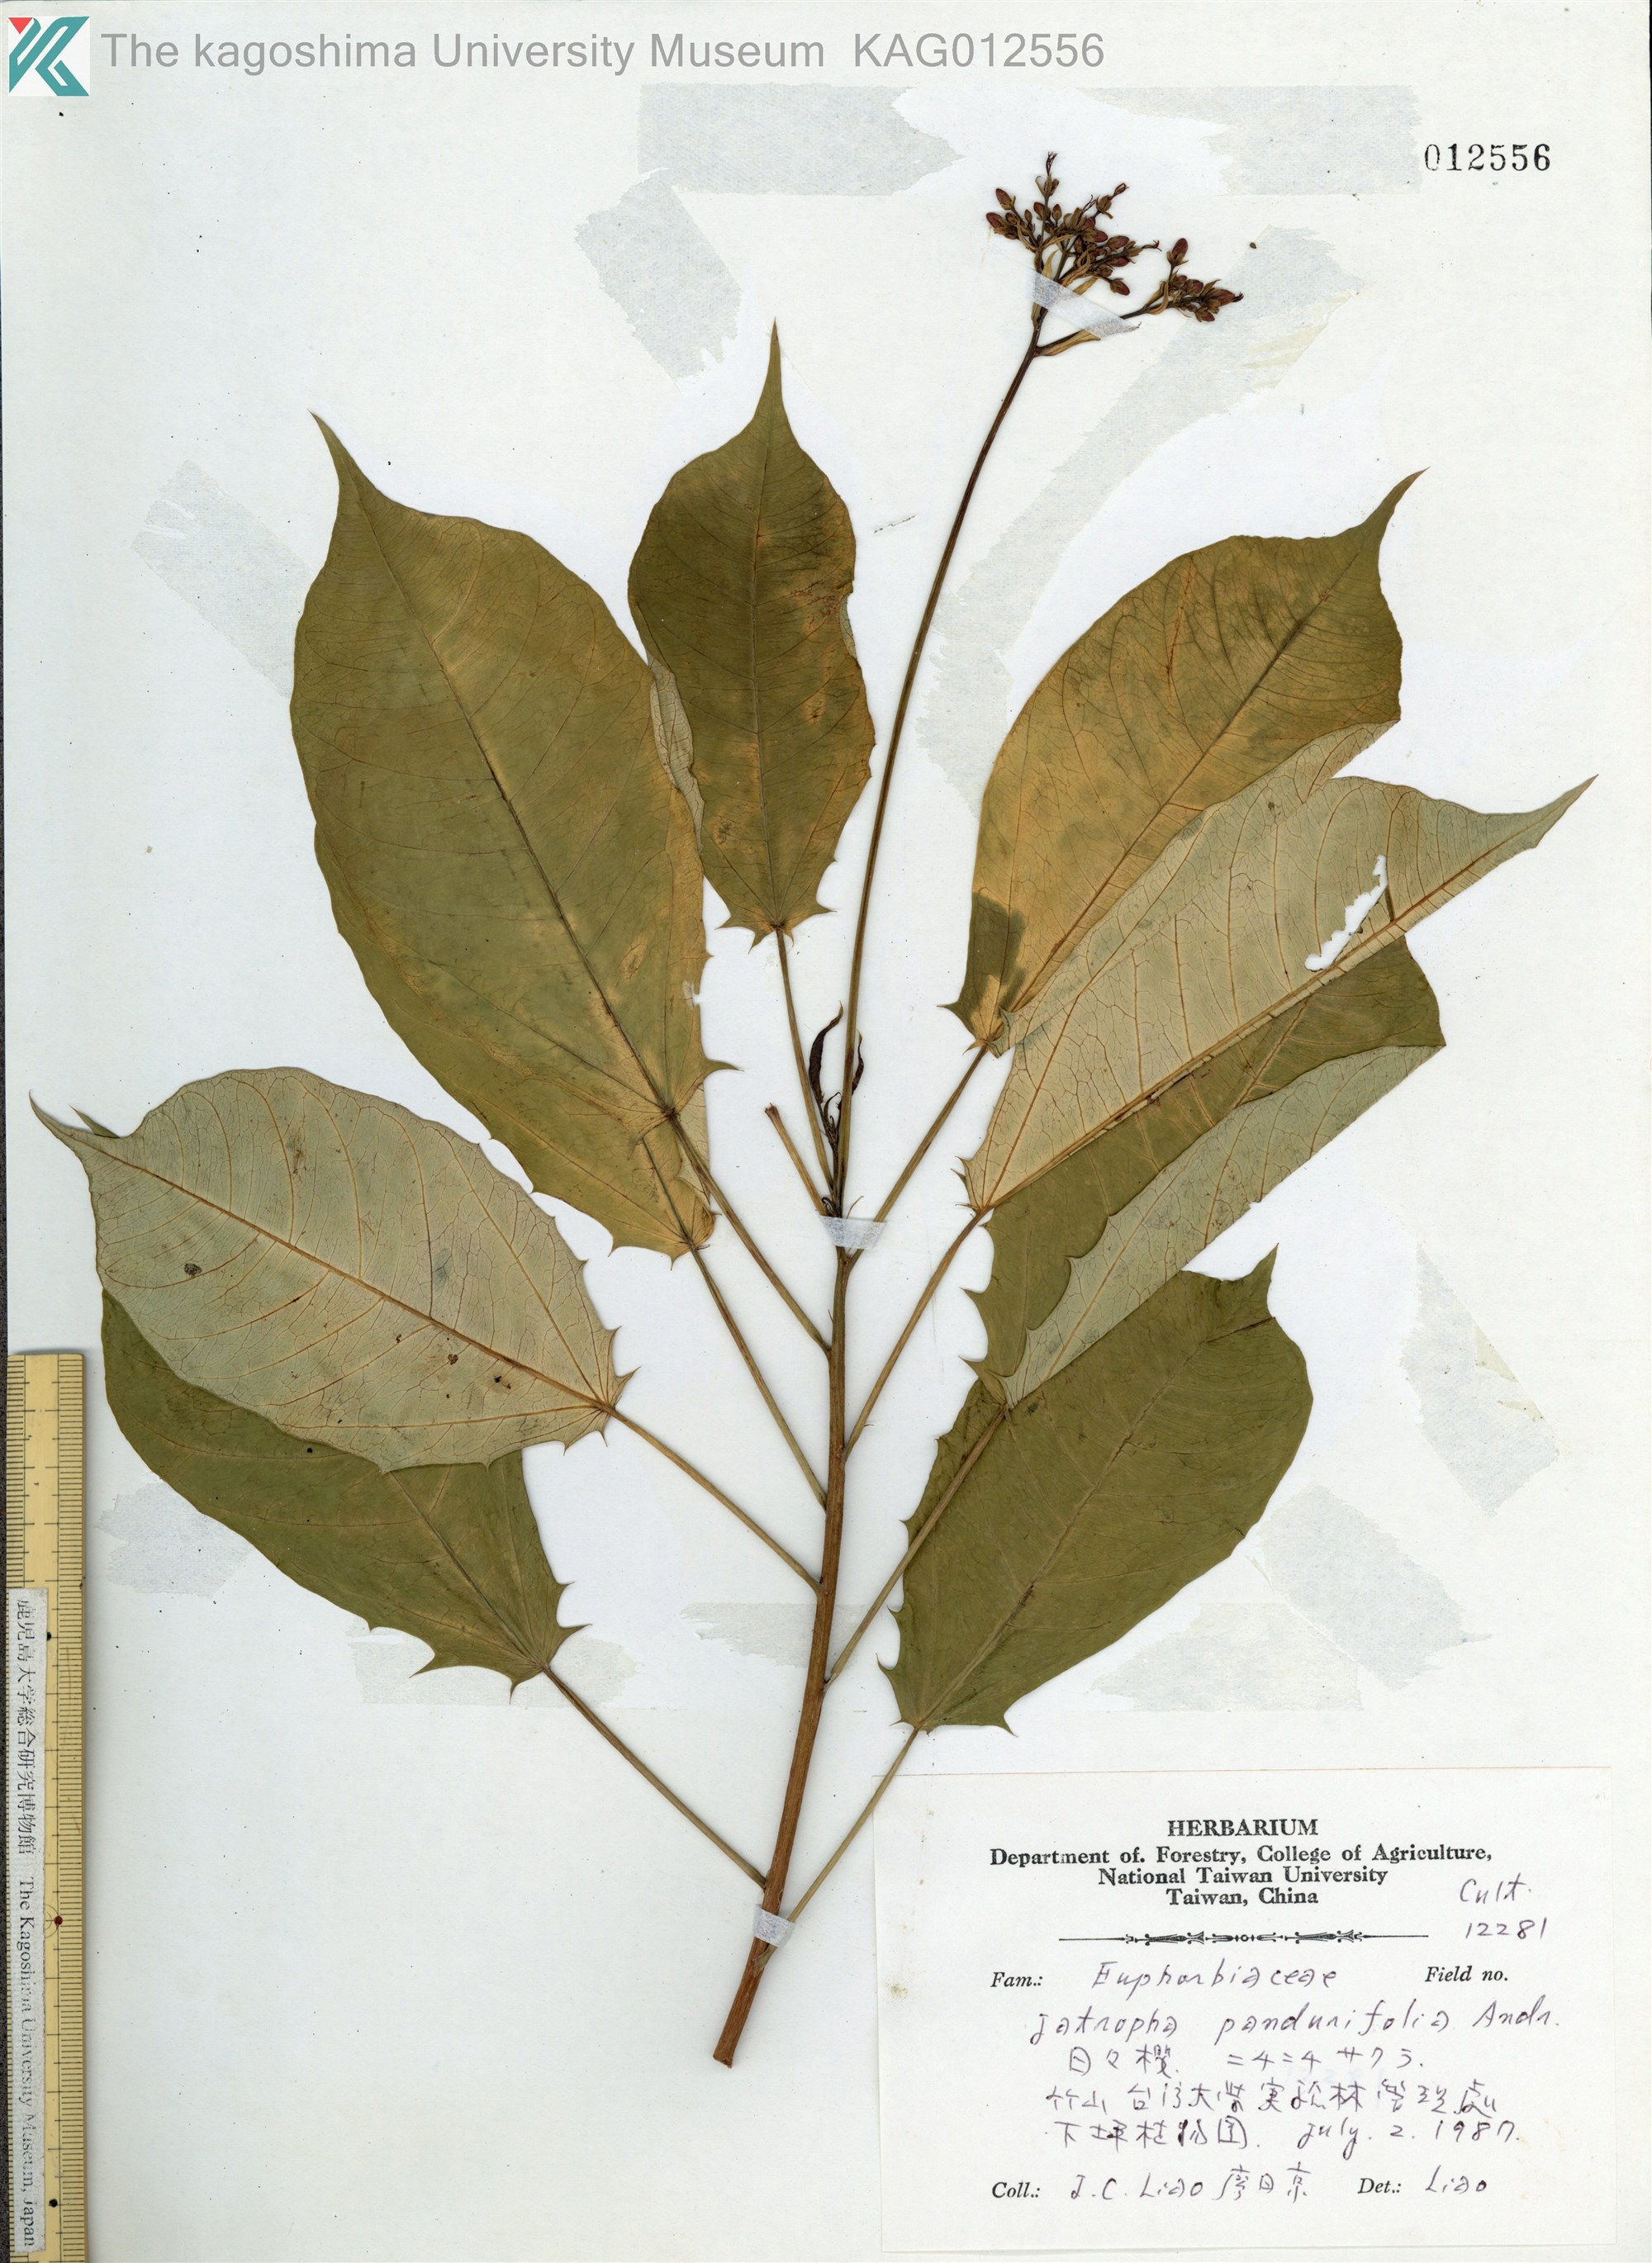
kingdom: Plantae
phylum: Tracheophyta
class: Magnoliopsida
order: Malpighiales
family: Euphorbiaceae
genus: Jatropha
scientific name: Jatropha integerrima
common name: Peregrina
